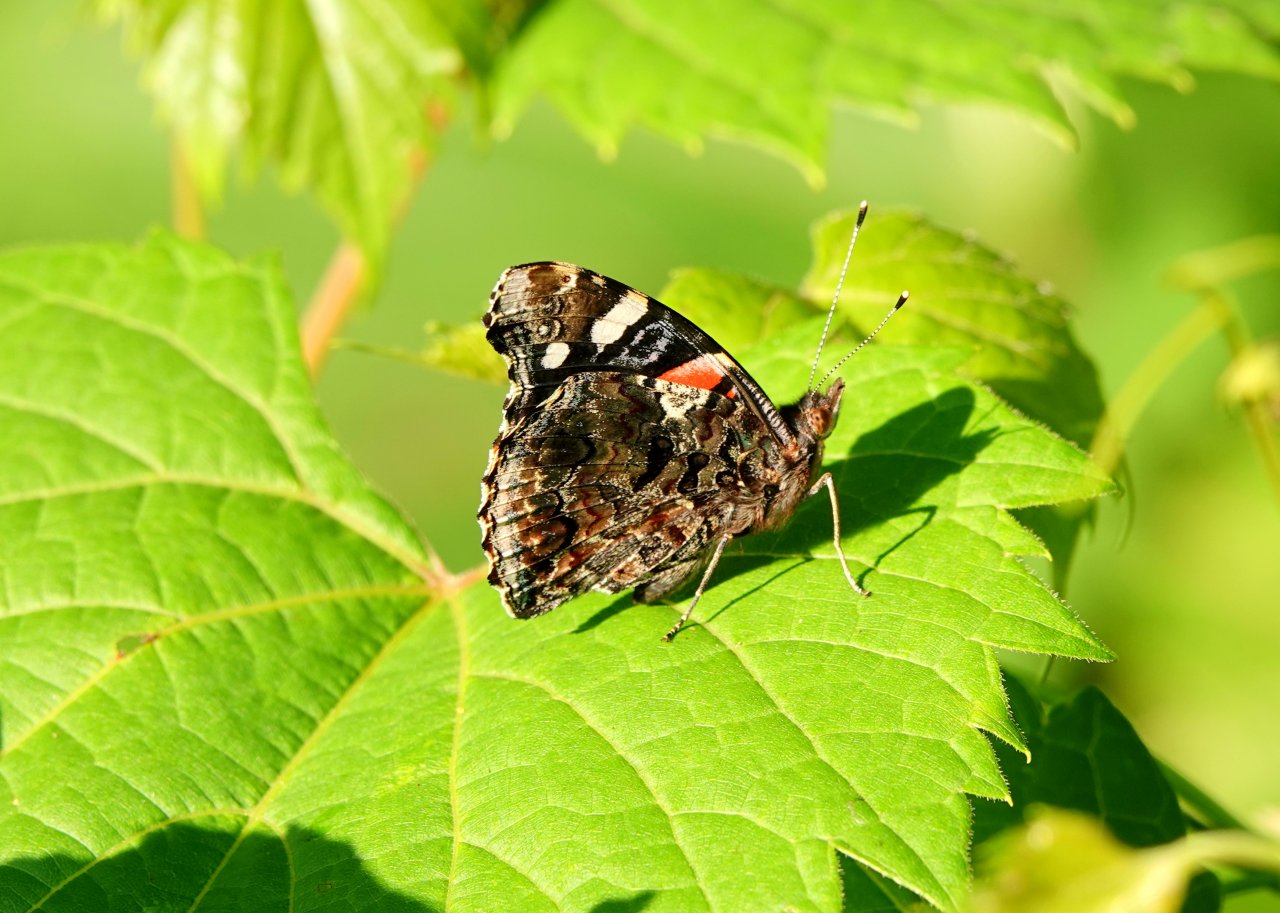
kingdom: Animalia
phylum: Arthropoda
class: Insecta
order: Lepidoptera
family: Nymphalidae
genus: Vanessa
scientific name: Vanessa virginiensis
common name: American Lady
